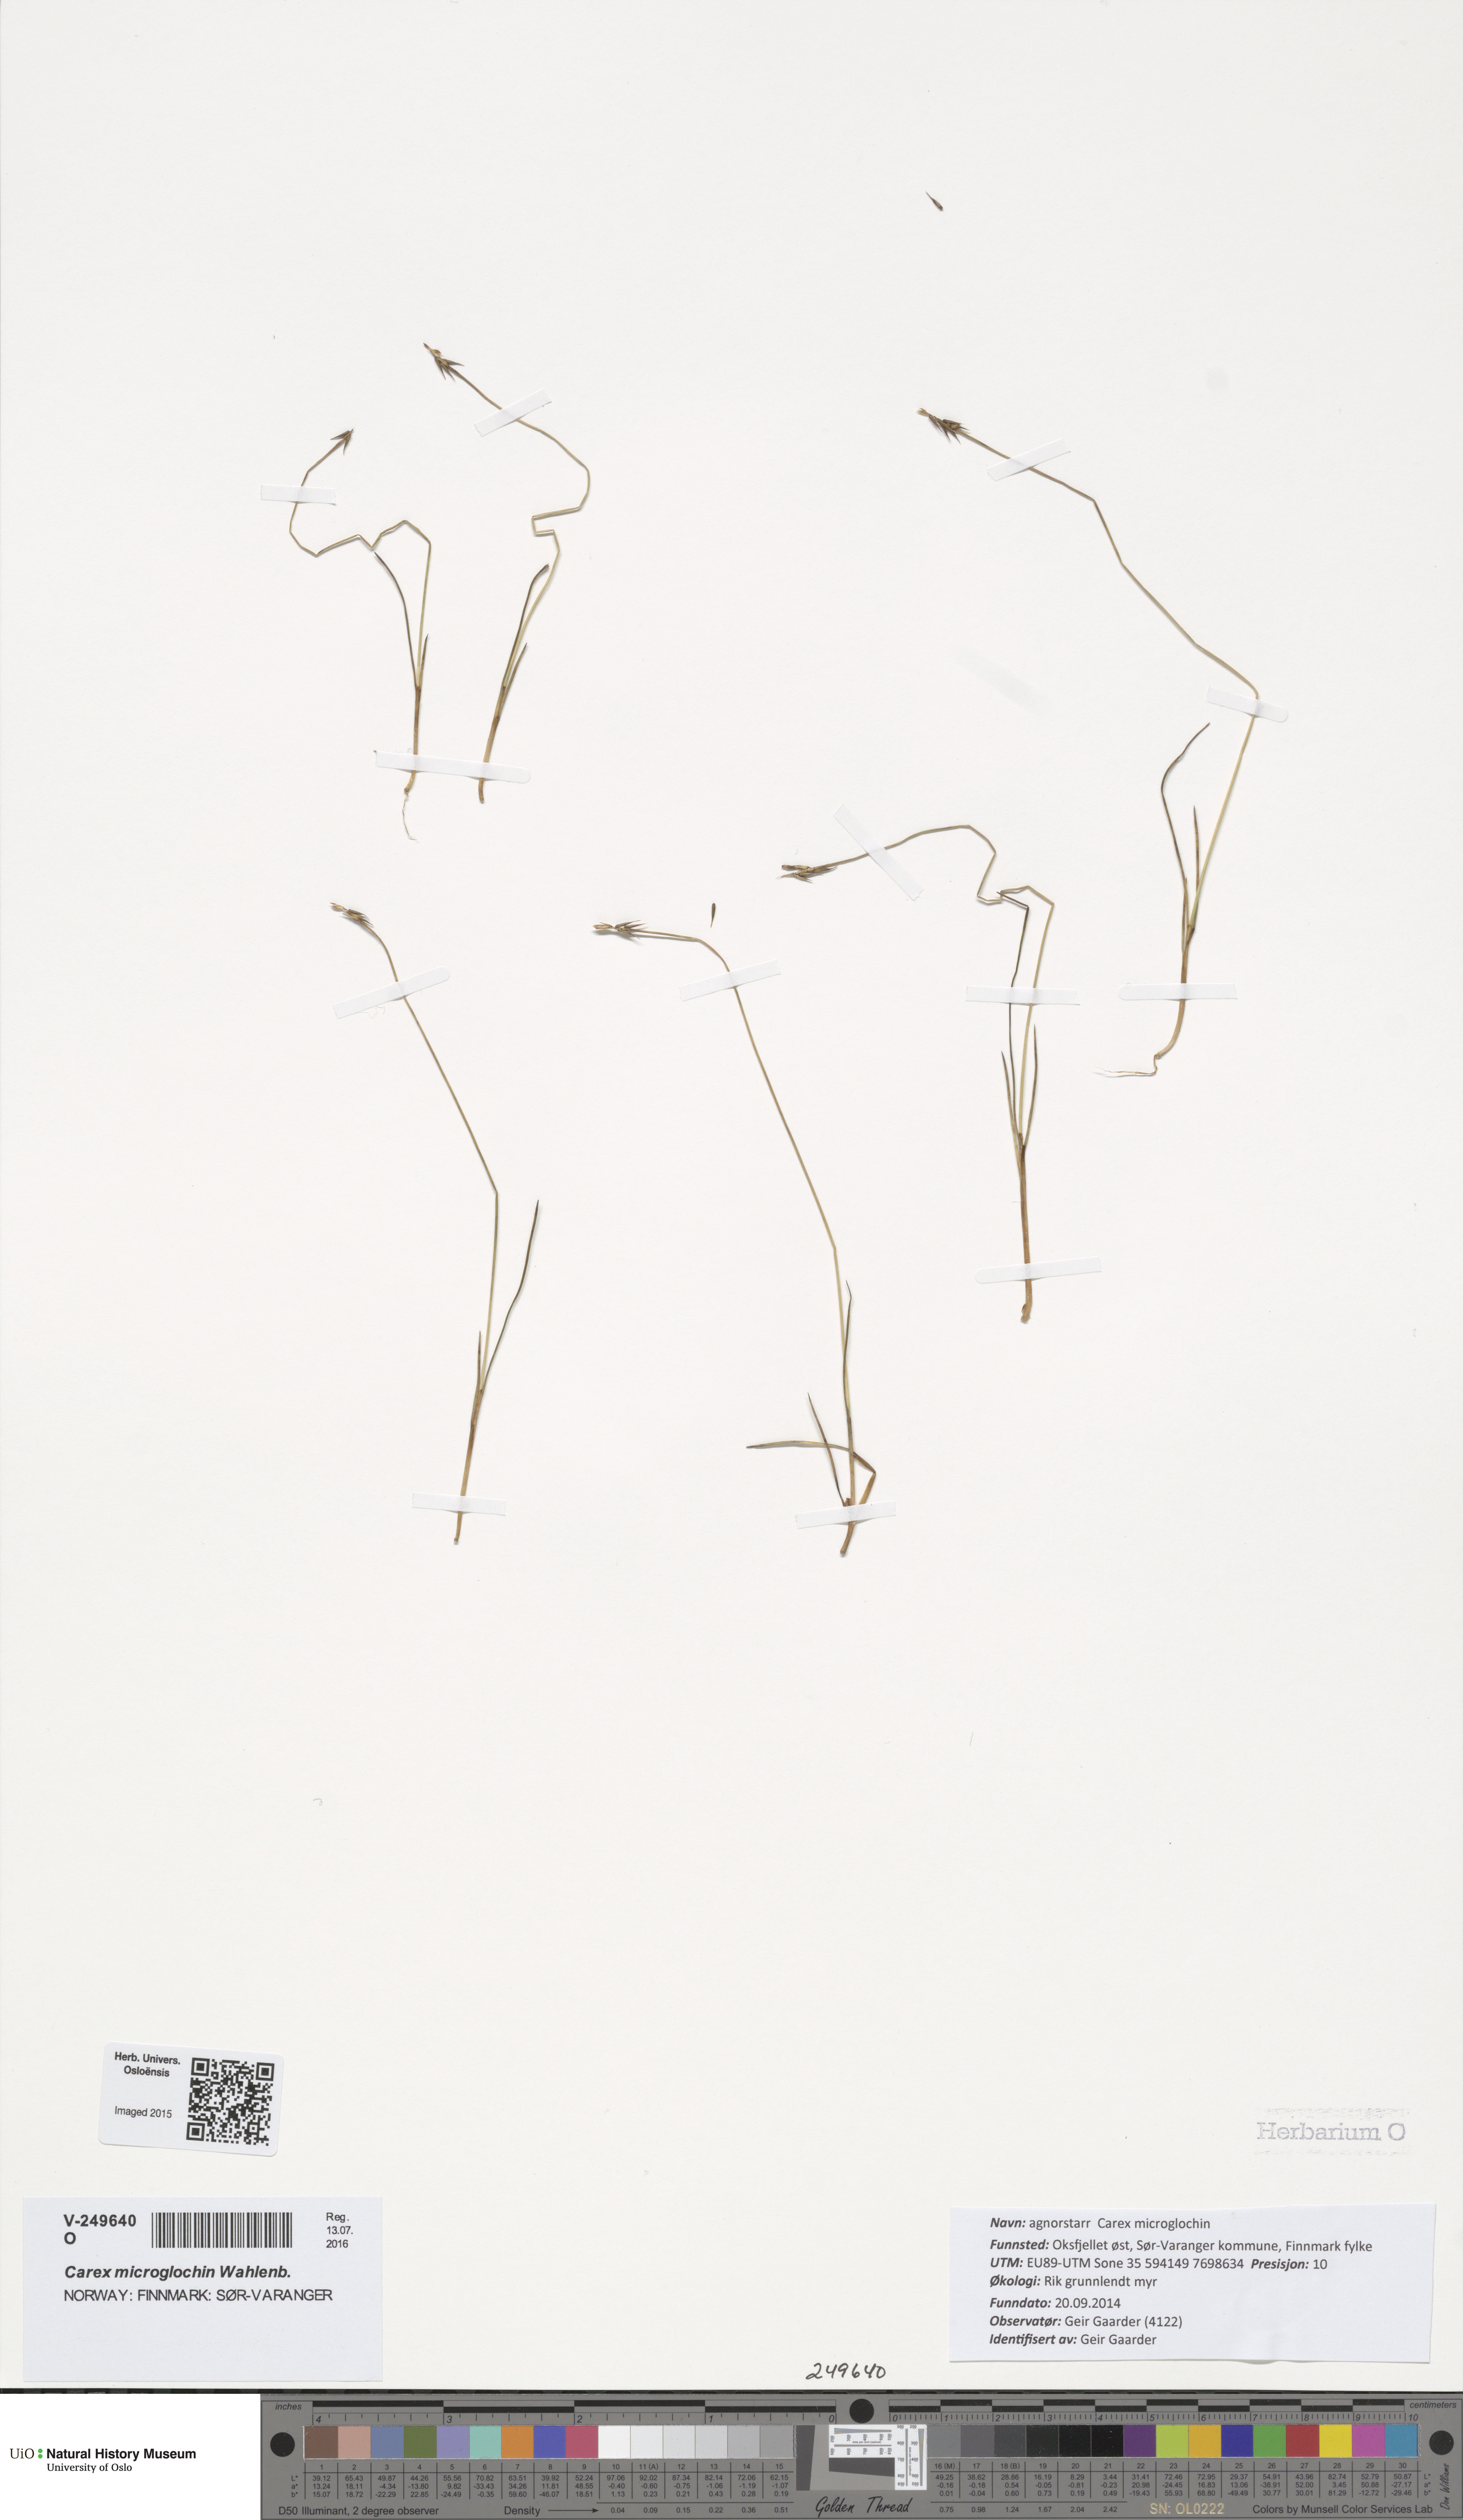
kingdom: Plantae
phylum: Tracheophyta
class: Liliopsida
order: Poales
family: Cyperaceae
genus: Carex
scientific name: Carex microglochin
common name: Bristle sedge
